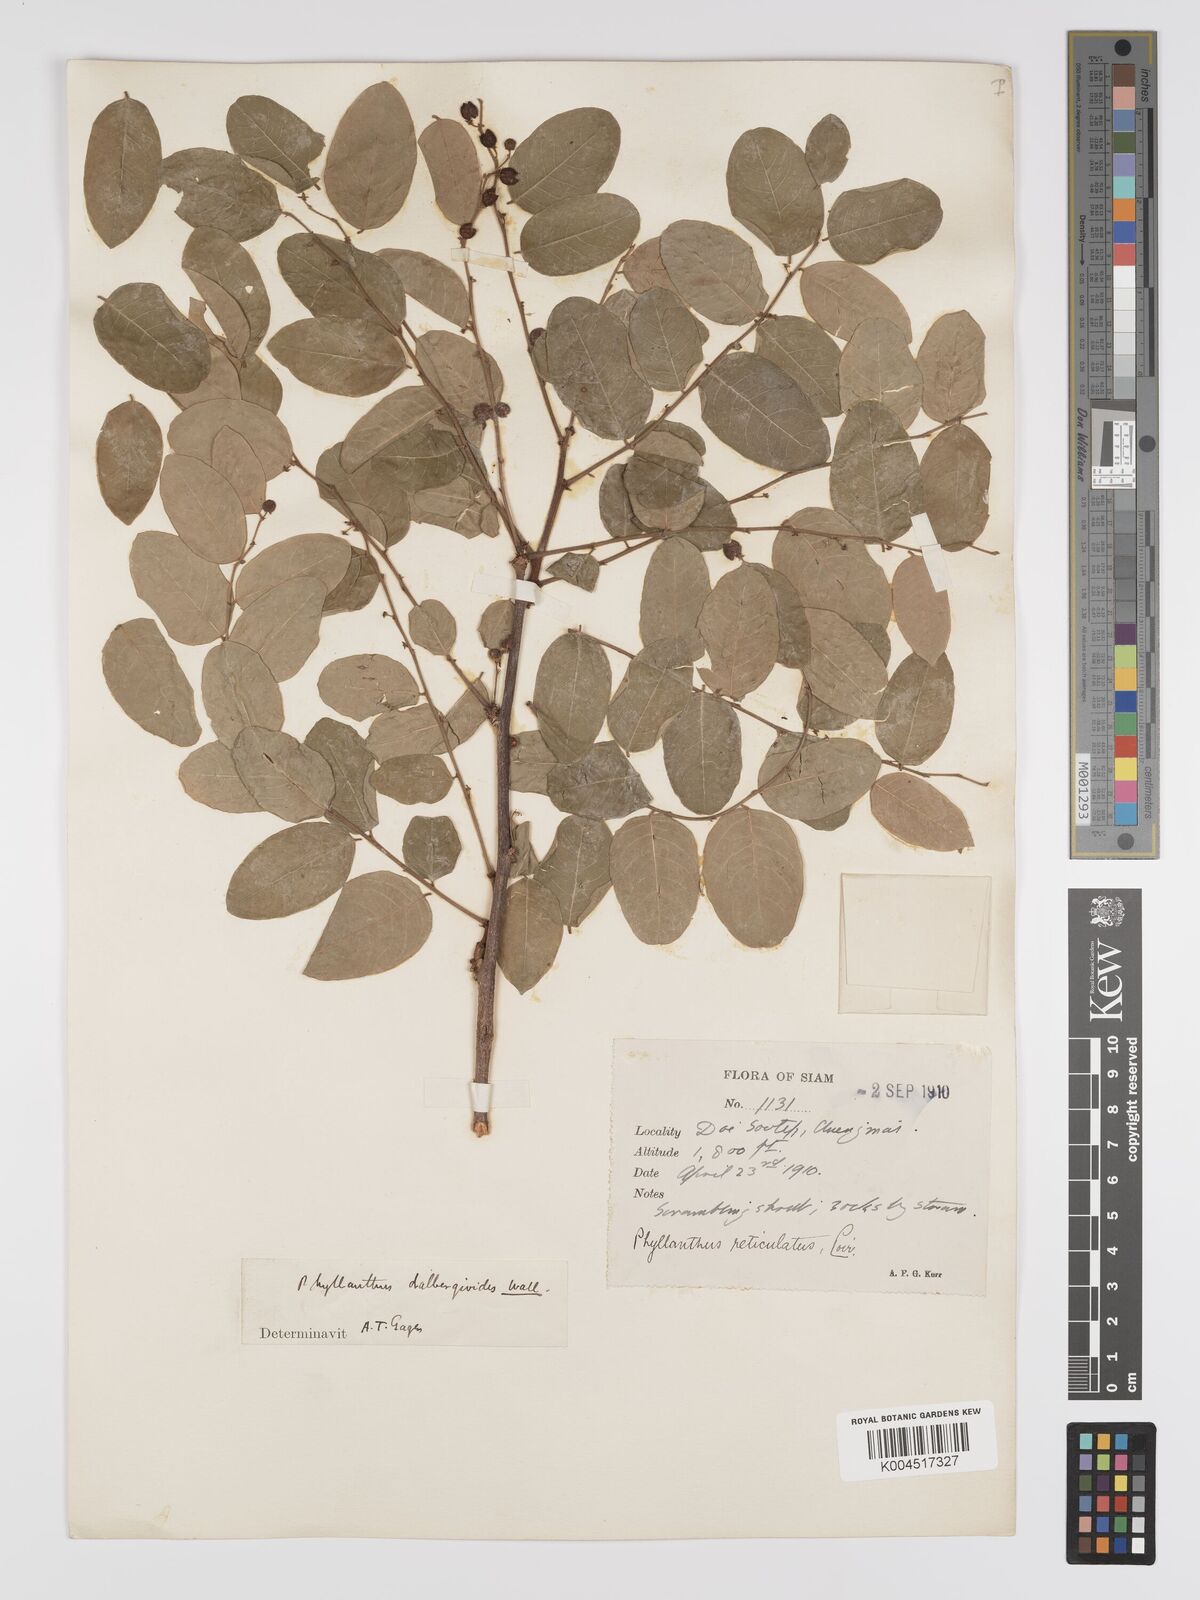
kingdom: Plantae
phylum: Tracheophyta
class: Magnoliopsida
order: Malpighiales
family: Phyllanthaceae
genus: Phyllanthus
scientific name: Phyllanthus reticulatus
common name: Potato bush
